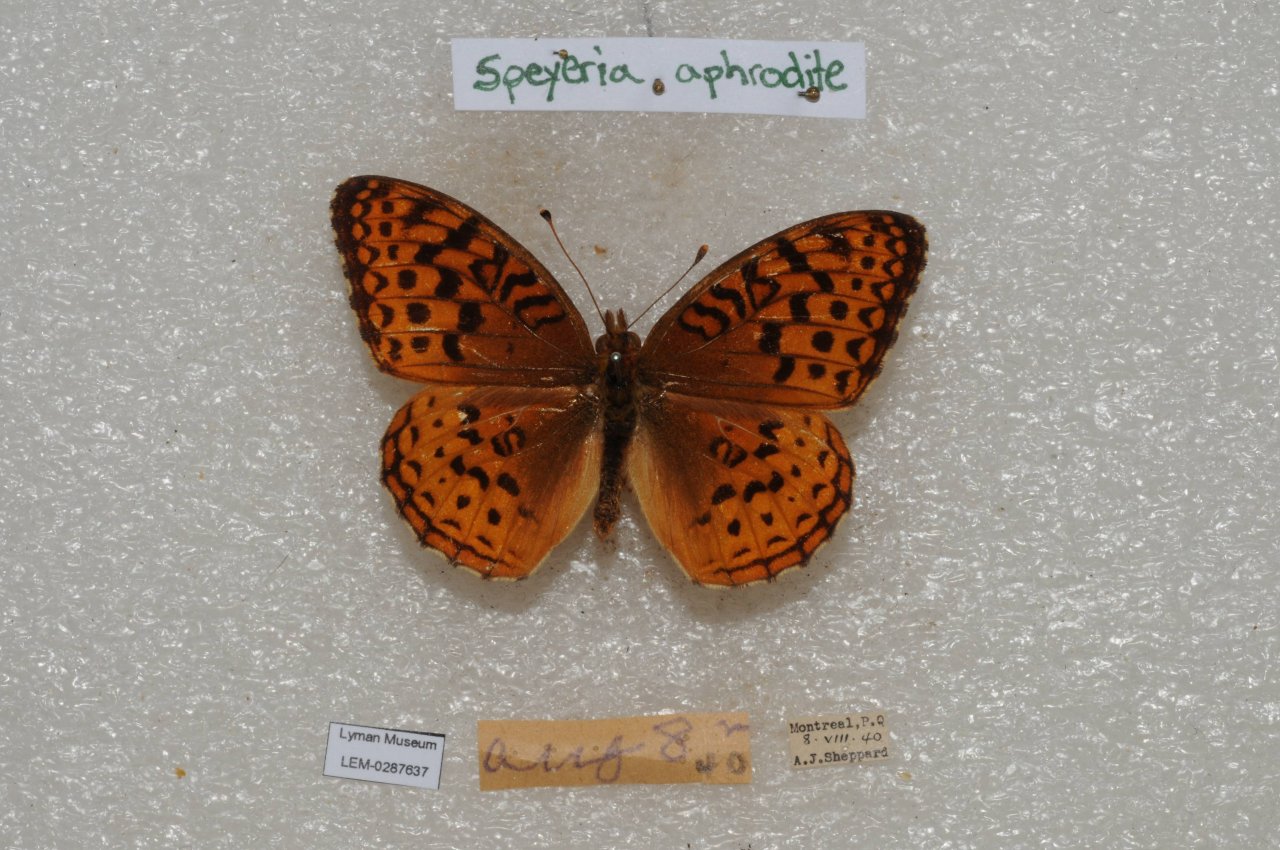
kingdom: Animalia
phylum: Arthropoda
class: Insecta
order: Lepidoptera
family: Nymphalidae
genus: Speyeria
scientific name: Speyeria aphrodite
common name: Aphrodite Fritillary
